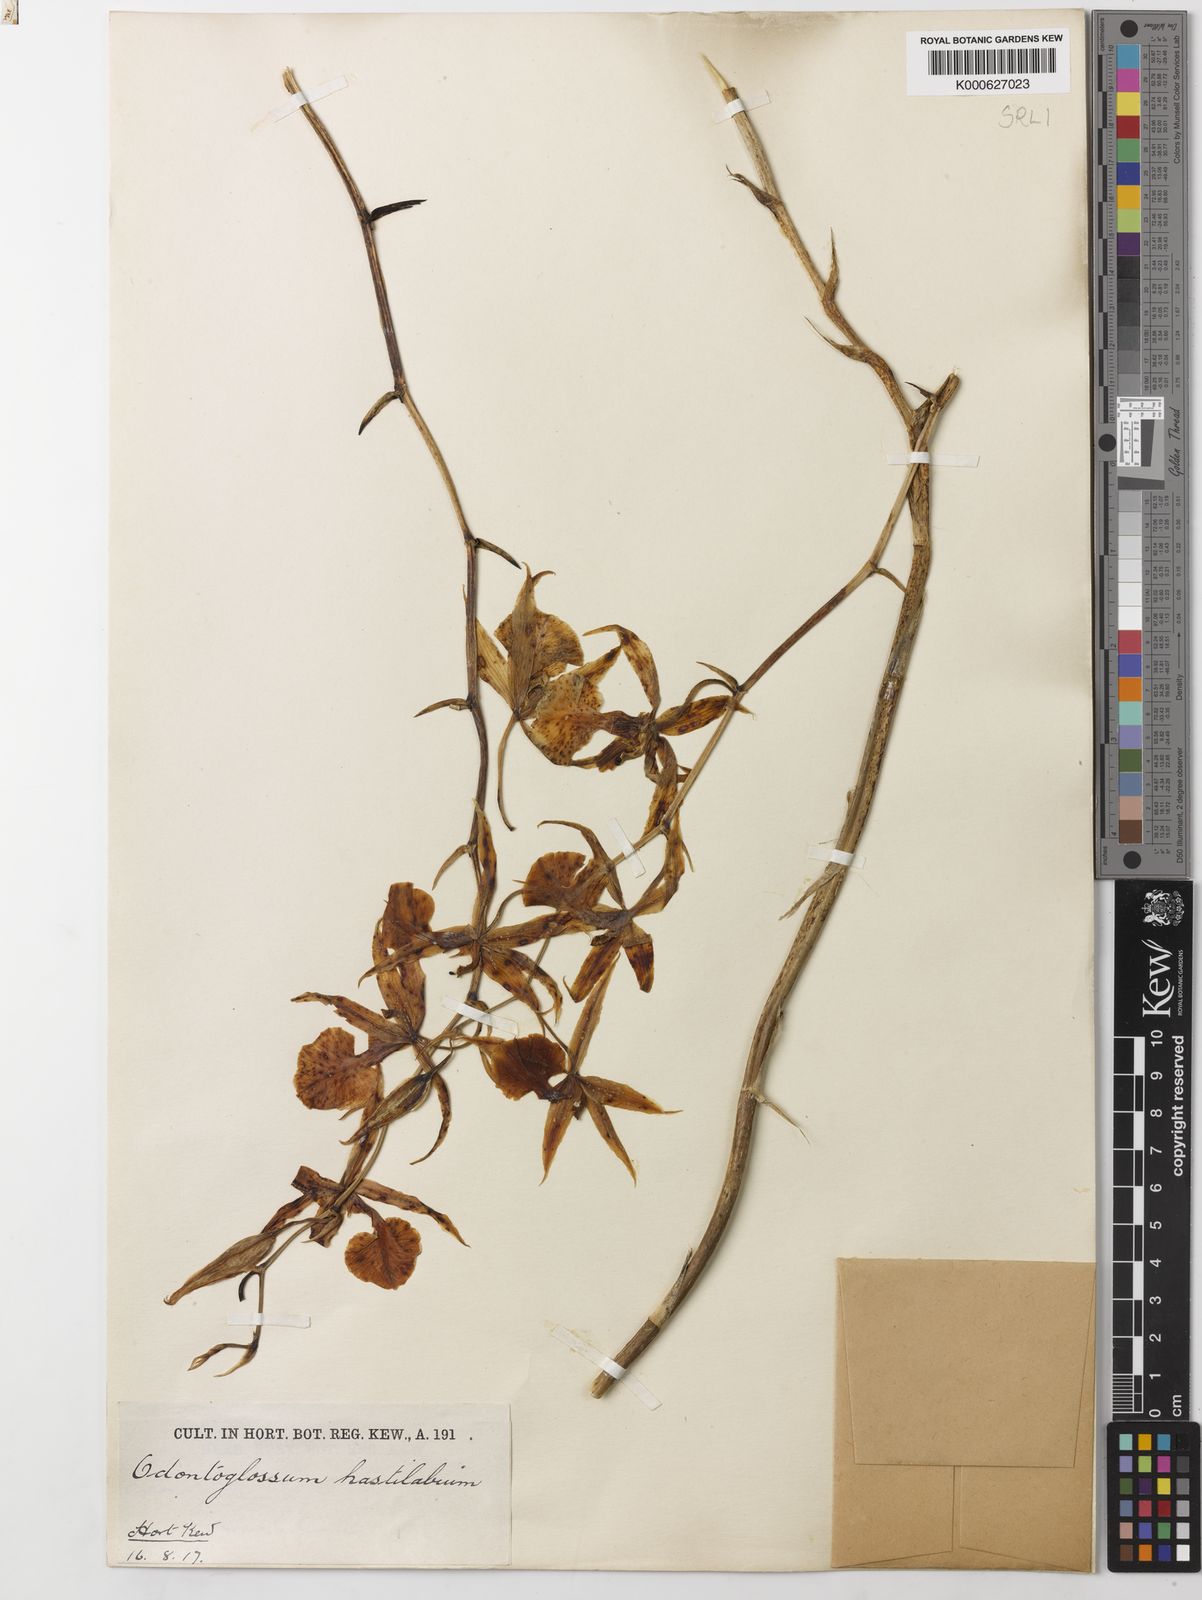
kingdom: Plantae
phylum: Tracheophyta
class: Liliopsida
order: Asparagales
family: Orchidaceae
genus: Oncidium
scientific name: Oncidium hastilabium
